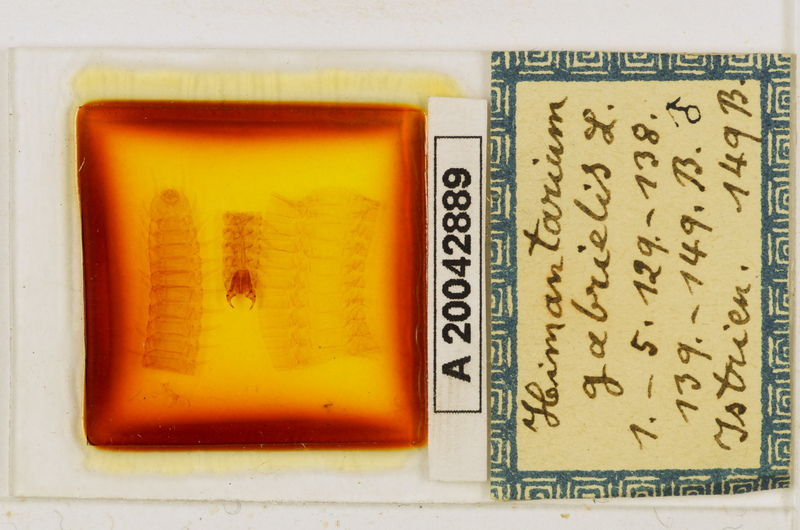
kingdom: Animalia
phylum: Arthropoda
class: Chilopoda
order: Geophilomorpha
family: Himantariidae
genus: Himantarium
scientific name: Himantarium gabrielis
